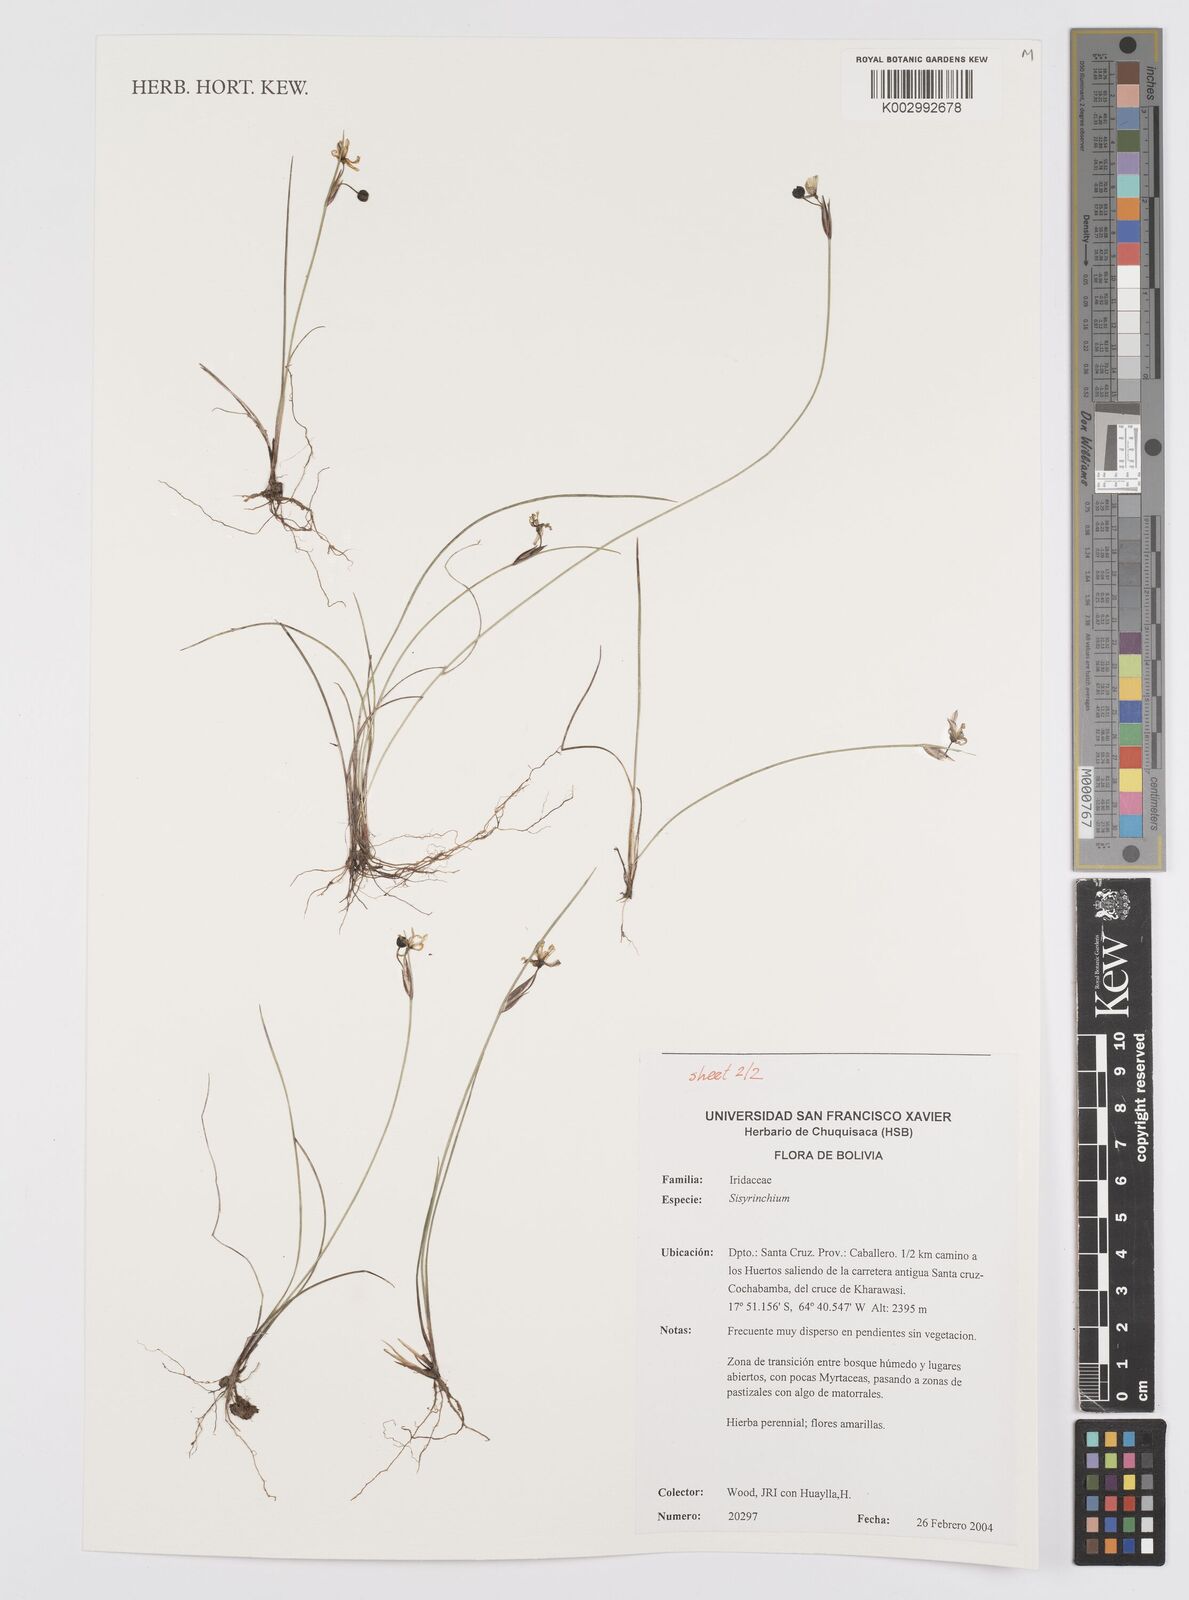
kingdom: Plantae
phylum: Tracheophyta
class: Liliopsida
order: Asparagales
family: Iridaceae
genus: Sisyrinchium
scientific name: Sisyrinchium
